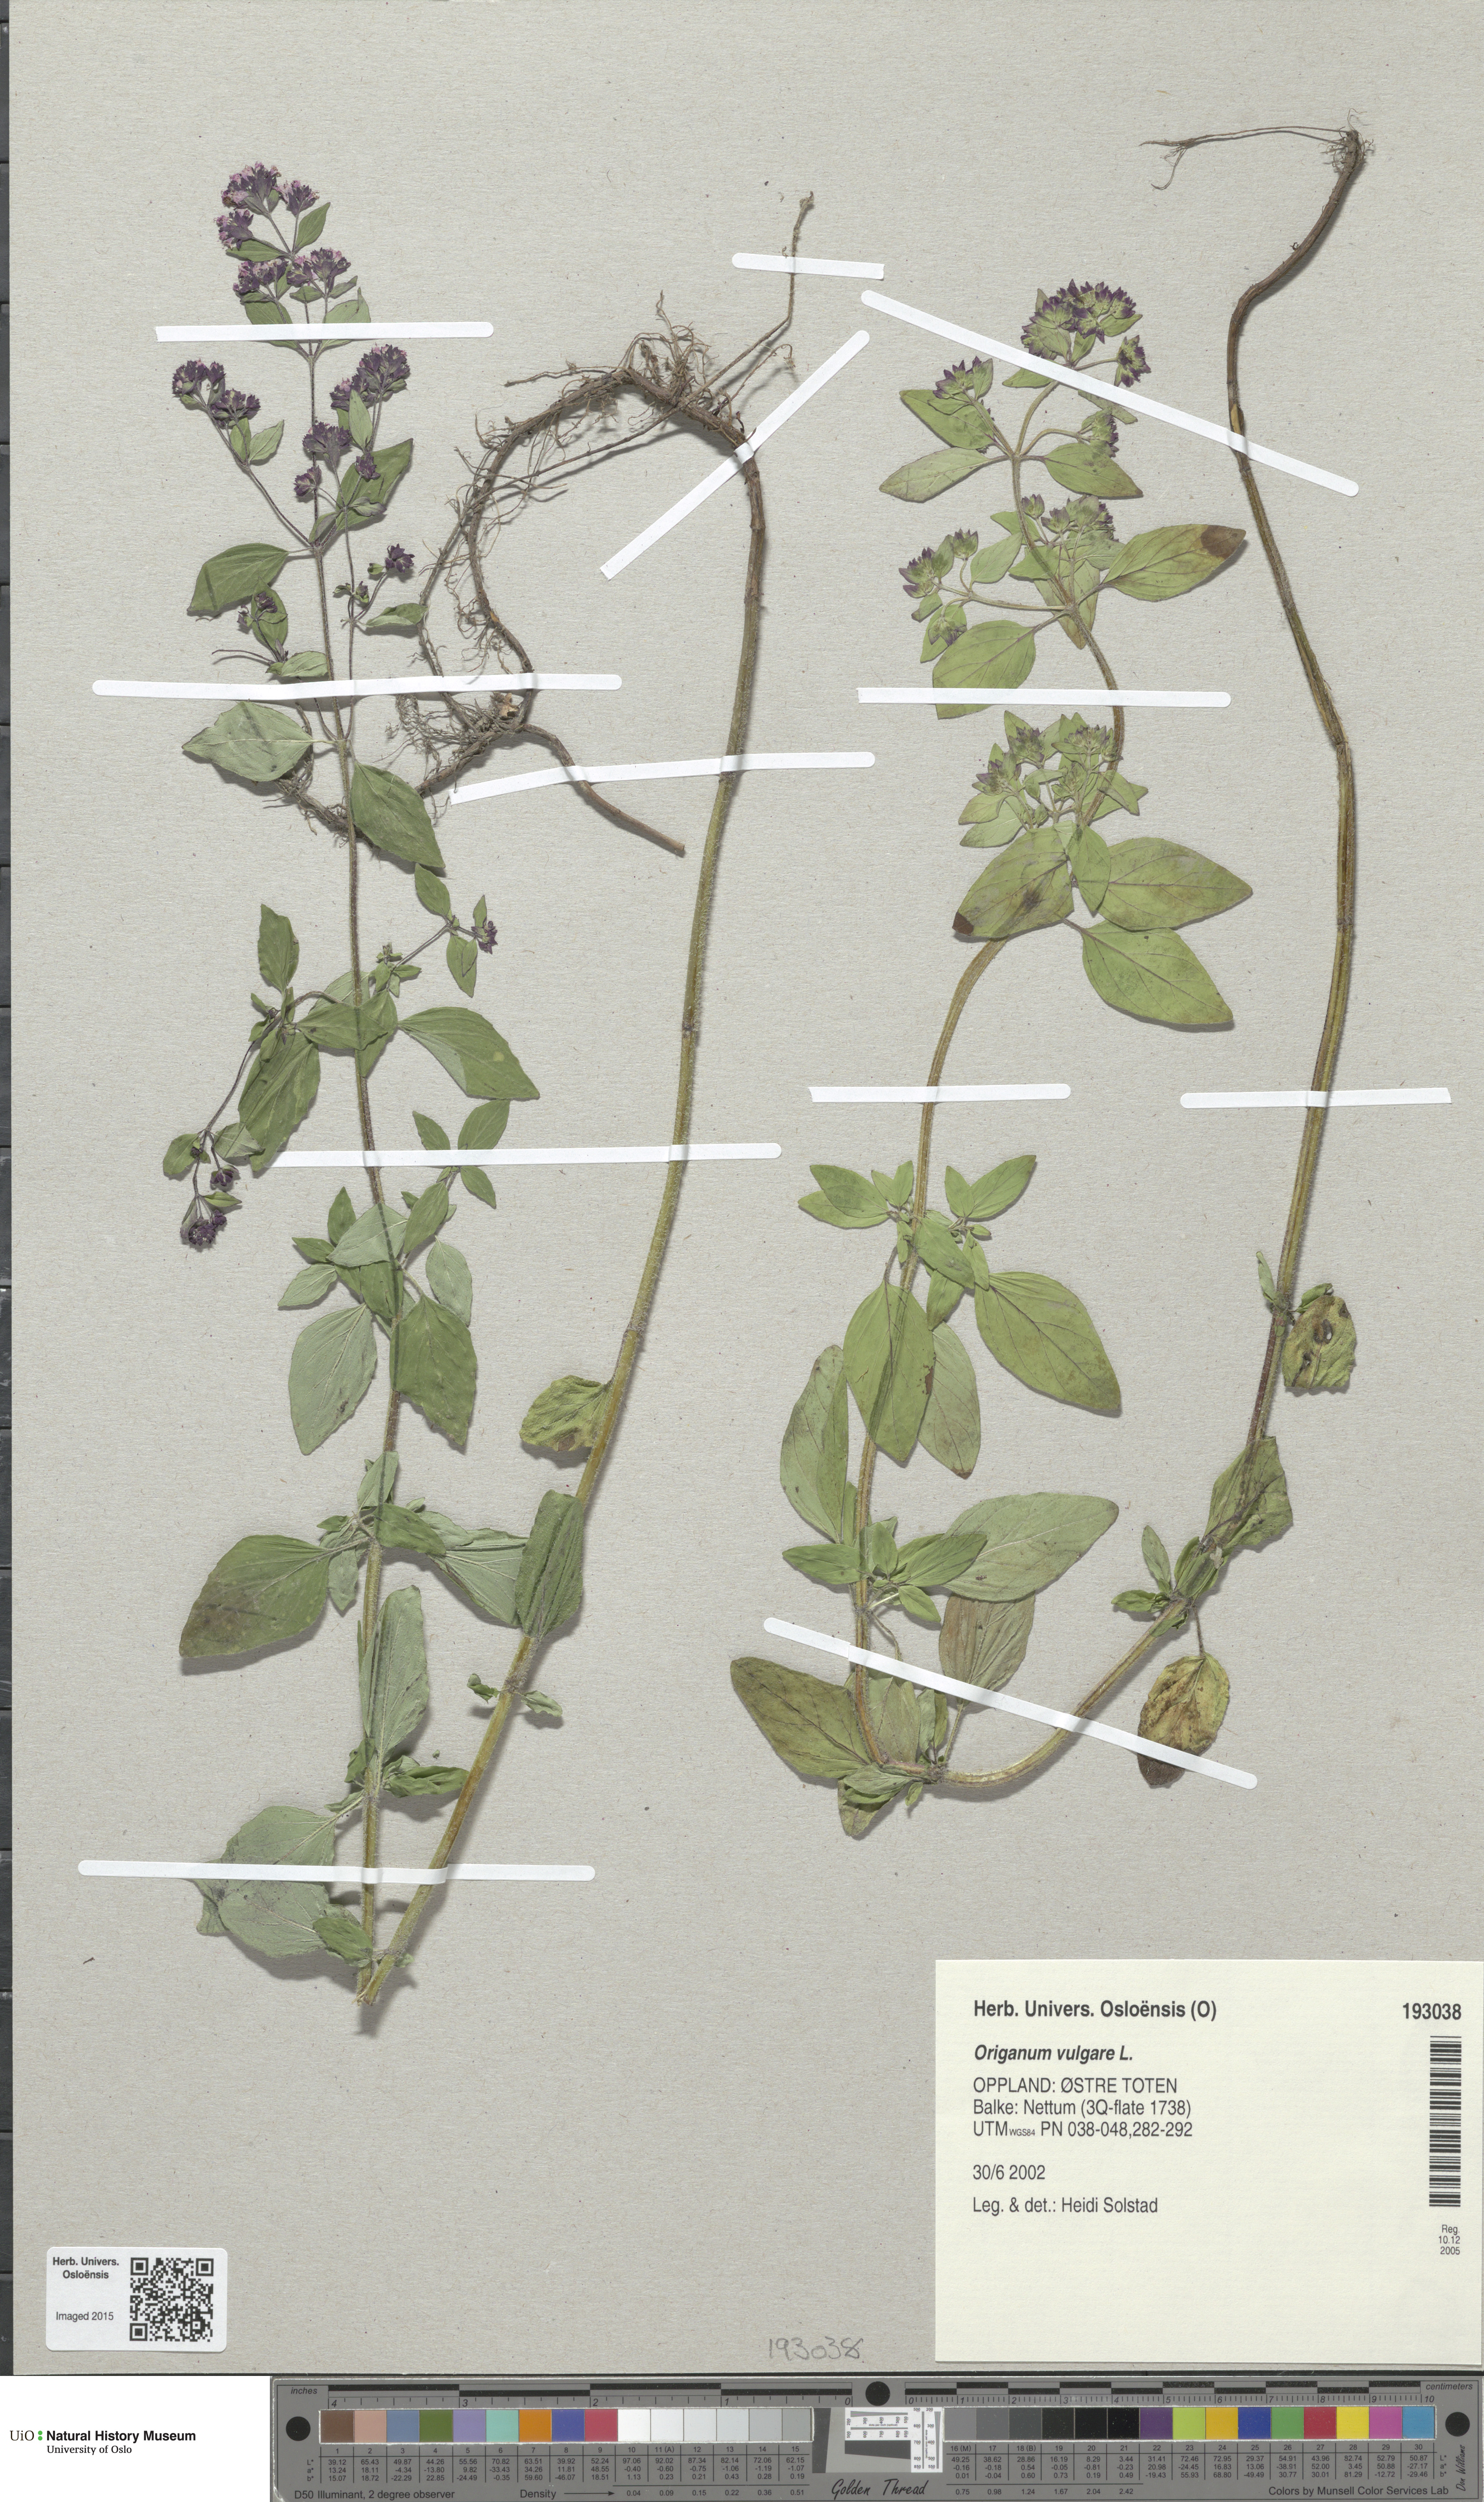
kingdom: Plantae
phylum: Tracheophyta
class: Magnoliopsida
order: Lamiales
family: Lamiaceae
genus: Origanum
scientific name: Origanum vulgare
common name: Wild marjoram
